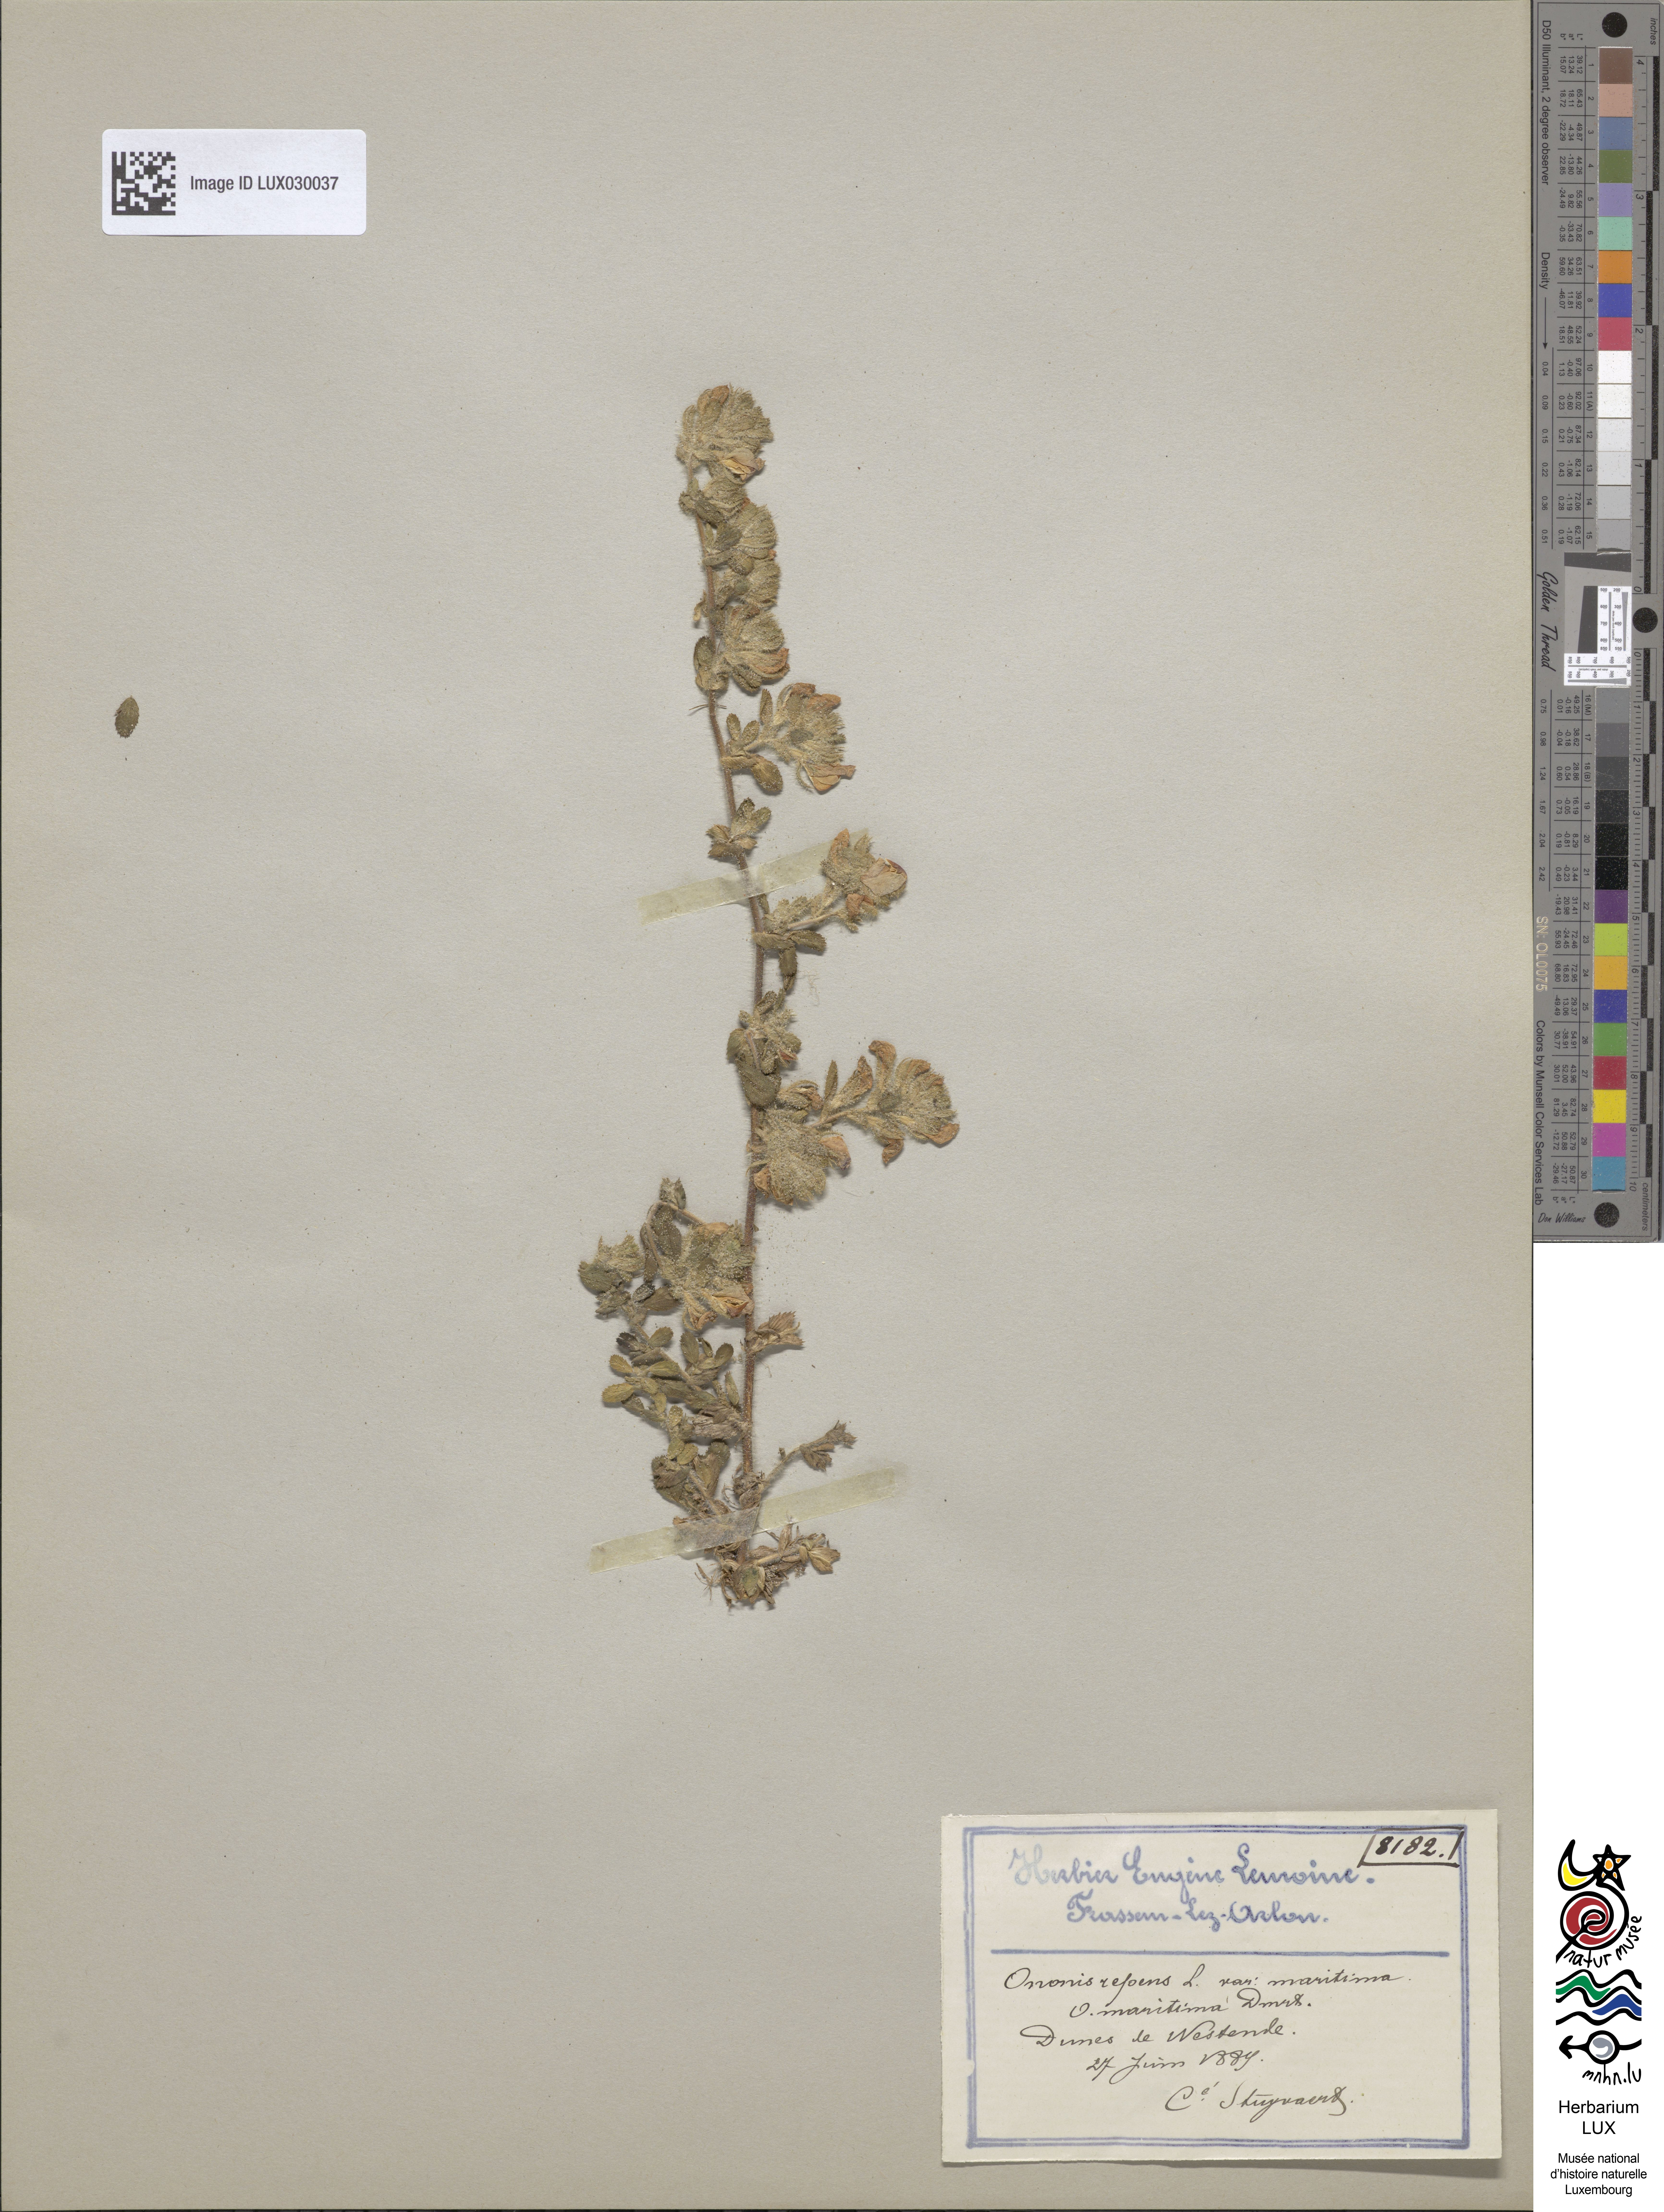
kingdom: Plantae
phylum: Tracheophyta
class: Magnoliopsida
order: Fabales
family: Fabaceae
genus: Ononis
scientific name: Ononis spinosa
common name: Spiny restharrow
